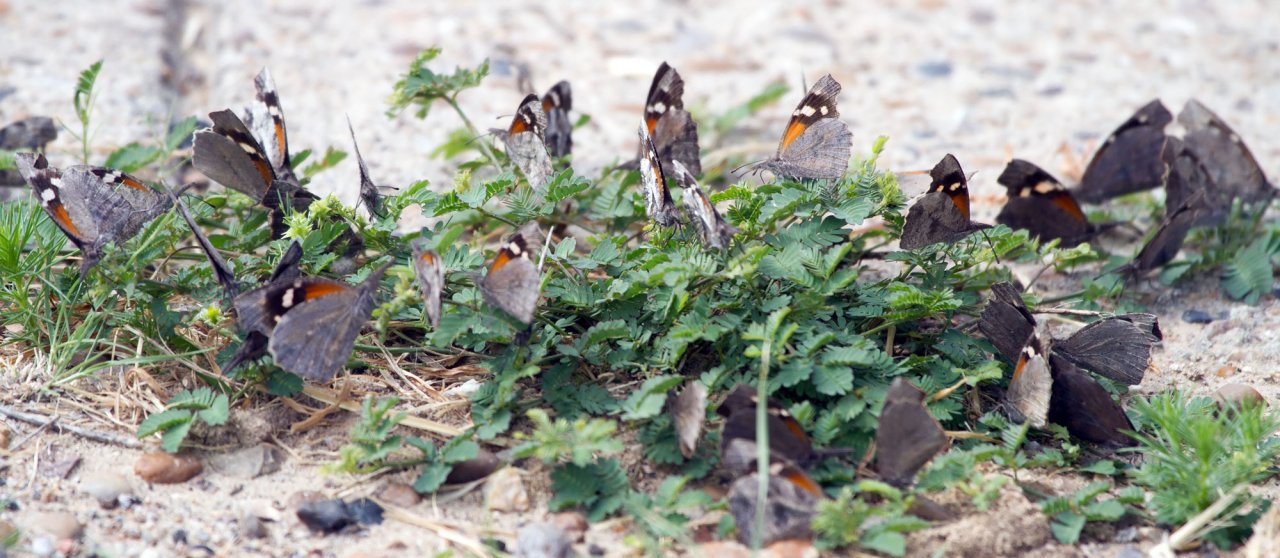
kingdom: Animalia
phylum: Arthropoda
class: Insecta
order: Lepidoptera
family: Nymphalidae
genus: Libytheana
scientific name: Libytheana carinenta
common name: American Snout
